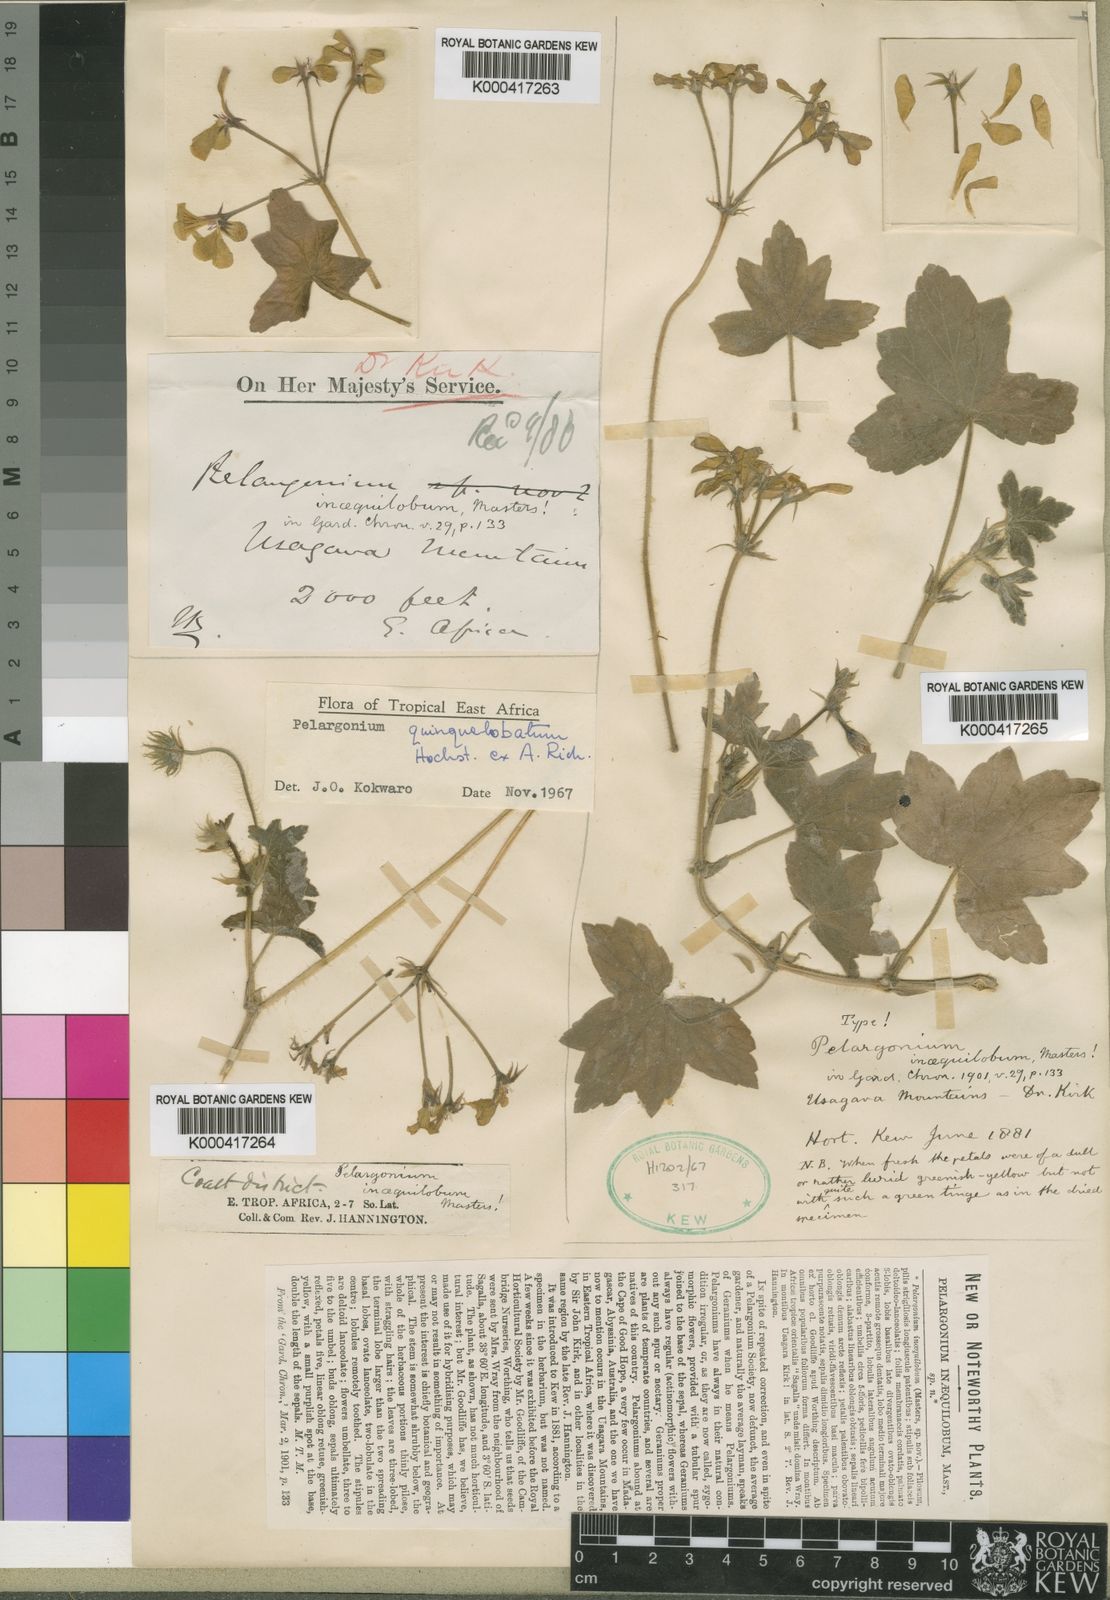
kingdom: Plantae
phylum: Tracheophyta
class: Magnoliopsida
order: Geraniales
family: Geraniaceae
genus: Pelargonium
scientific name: Pelargonium quinquelobatum
